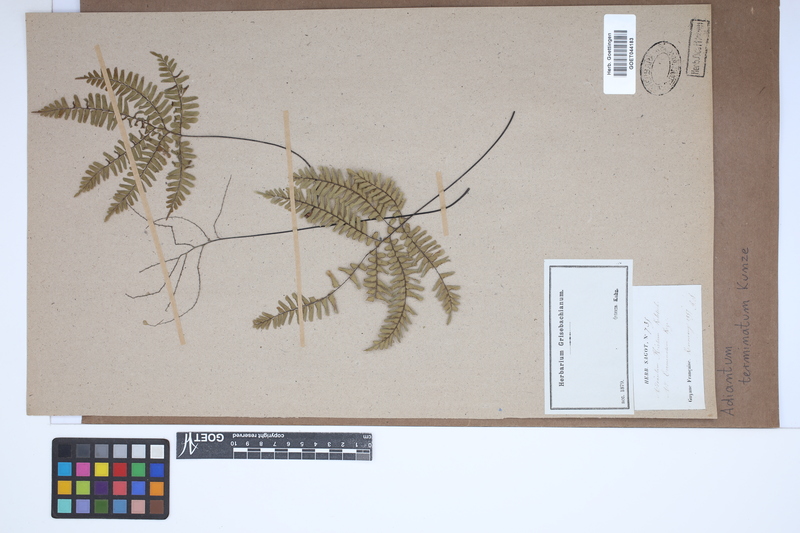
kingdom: Plantae
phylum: Tracheophyta
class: Polypodiopsida
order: Polypodiales
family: Pteridaceae
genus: Adiantum
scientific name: Adiantum terminatum
